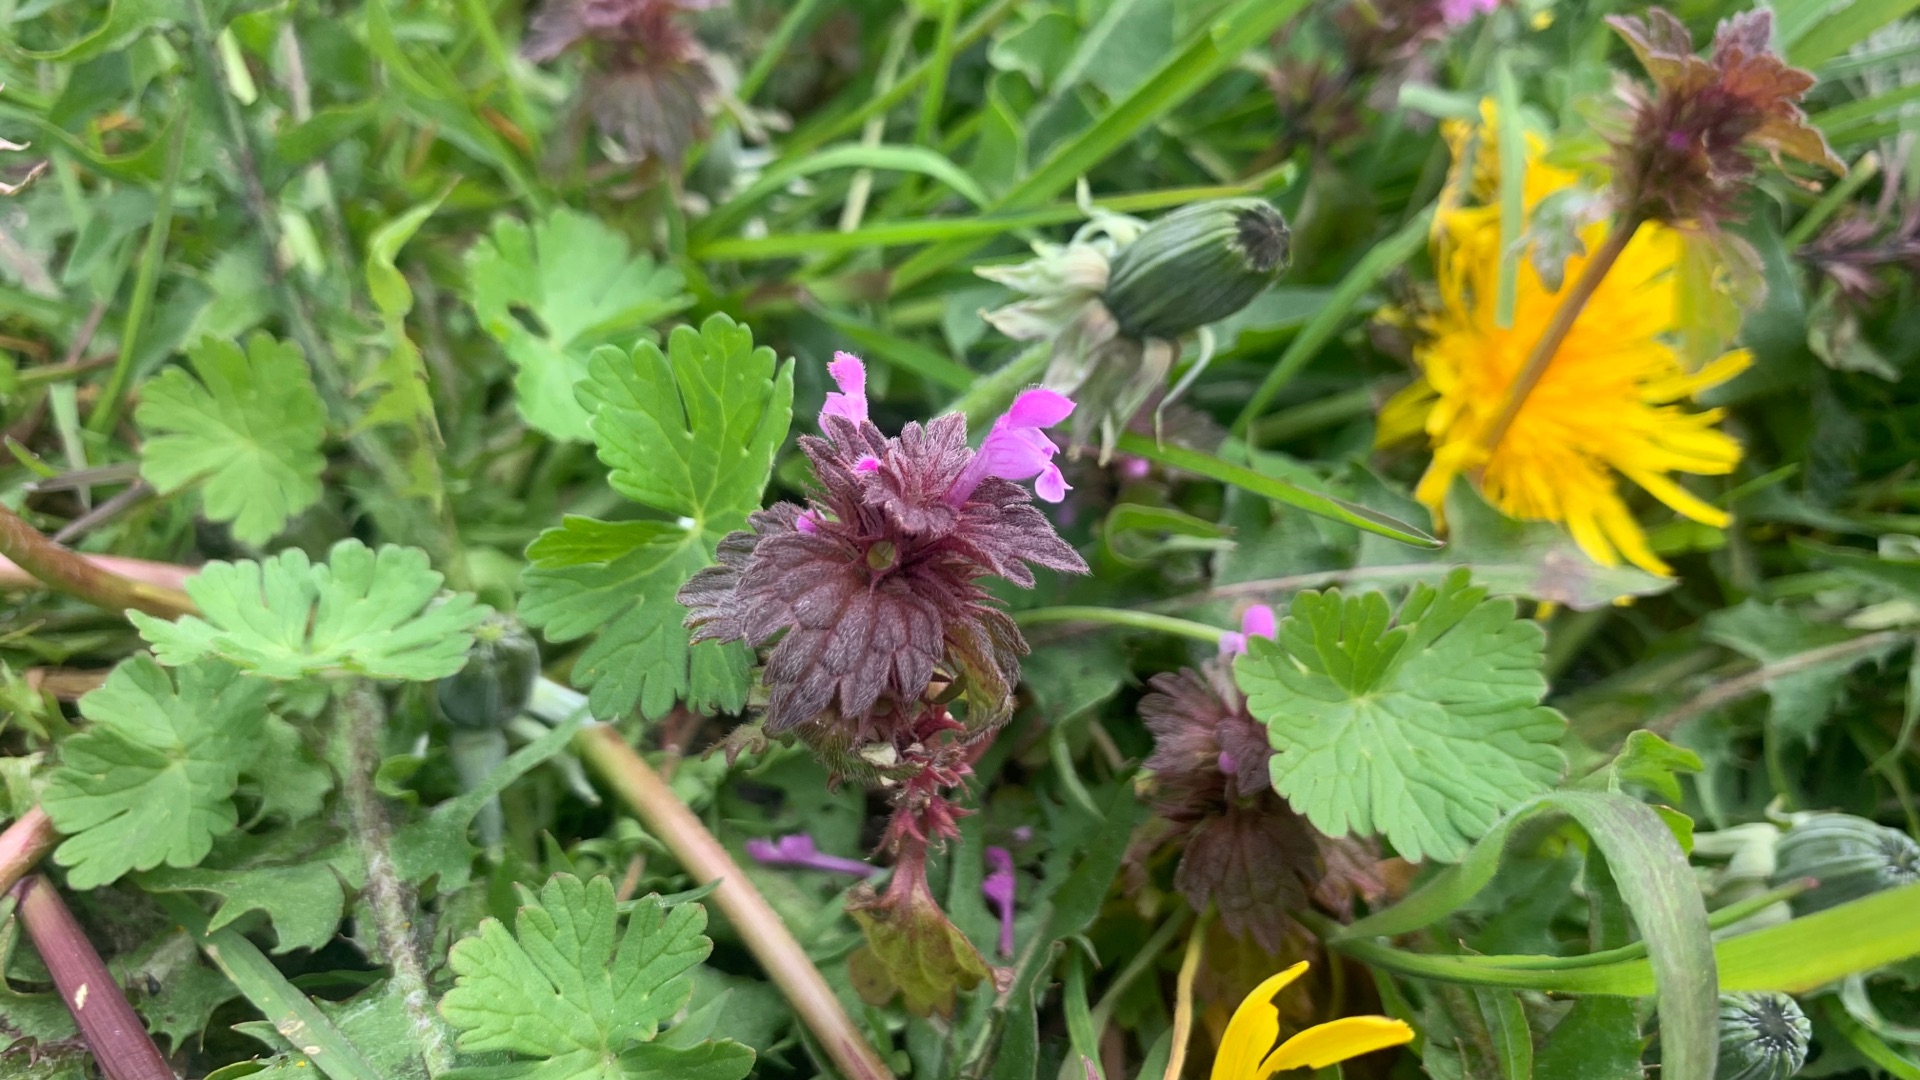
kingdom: Plantae
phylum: Tracheophyta
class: Magnoliopsida
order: Lamiales
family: Lamiaceae
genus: Lamium
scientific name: Lamium purpureum
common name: Rød tvetand
